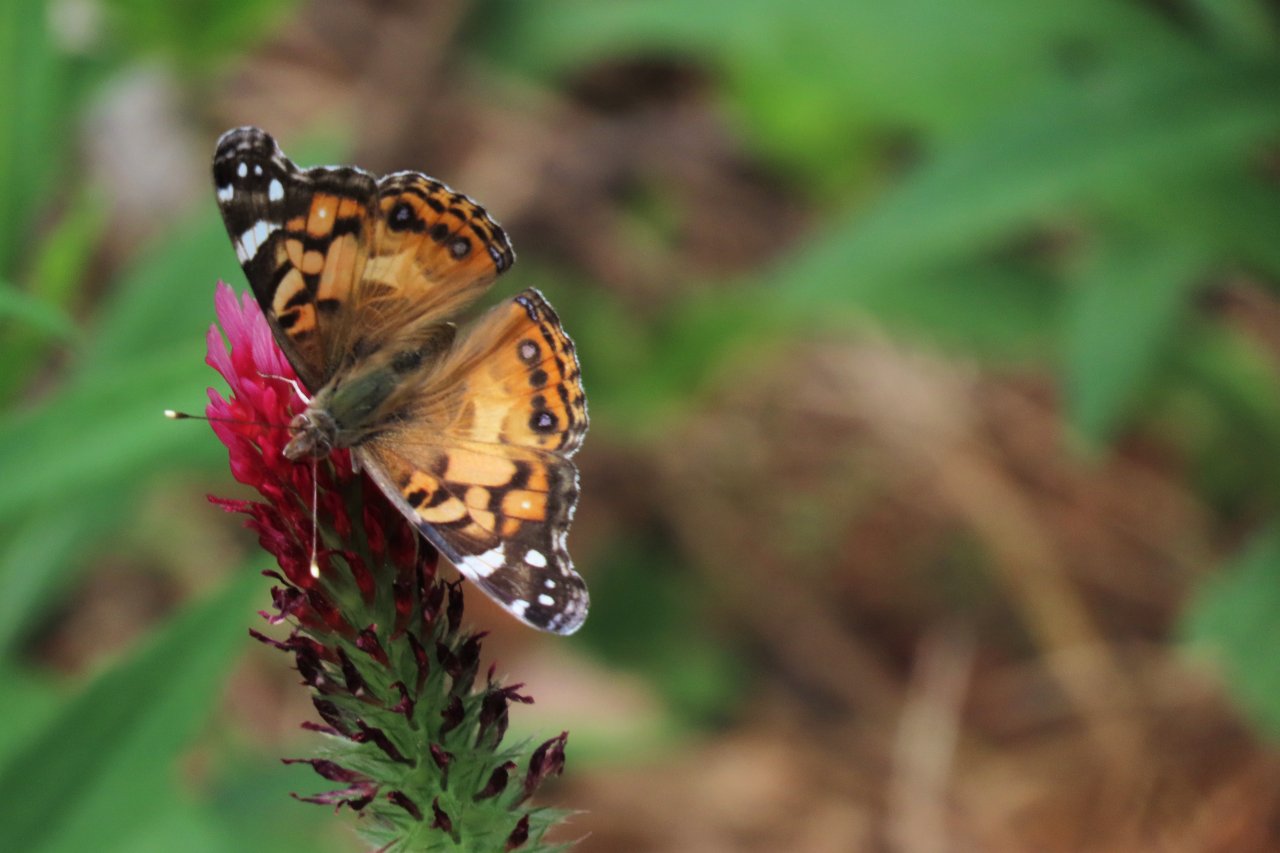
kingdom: Animalia
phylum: Arthropoda
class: Insecta
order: Lepidoptera
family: Nymphalidae
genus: Vanessa
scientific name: Vanessa virginiensis
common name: American Lady
